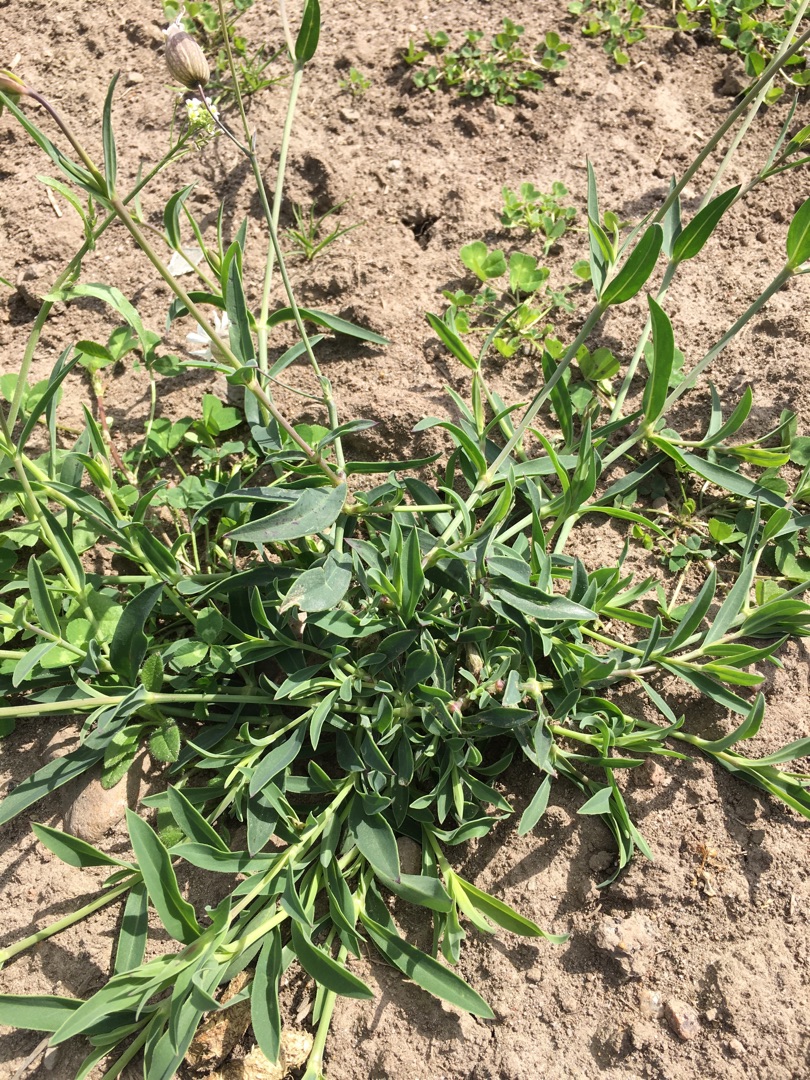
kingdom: Plantae
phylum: Tracheophyta
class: Magnoliopsida
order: Caryophyllales
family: Caryophyllaceae
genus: Silene
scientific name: Silene vulgaris
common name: Blæresmælde
